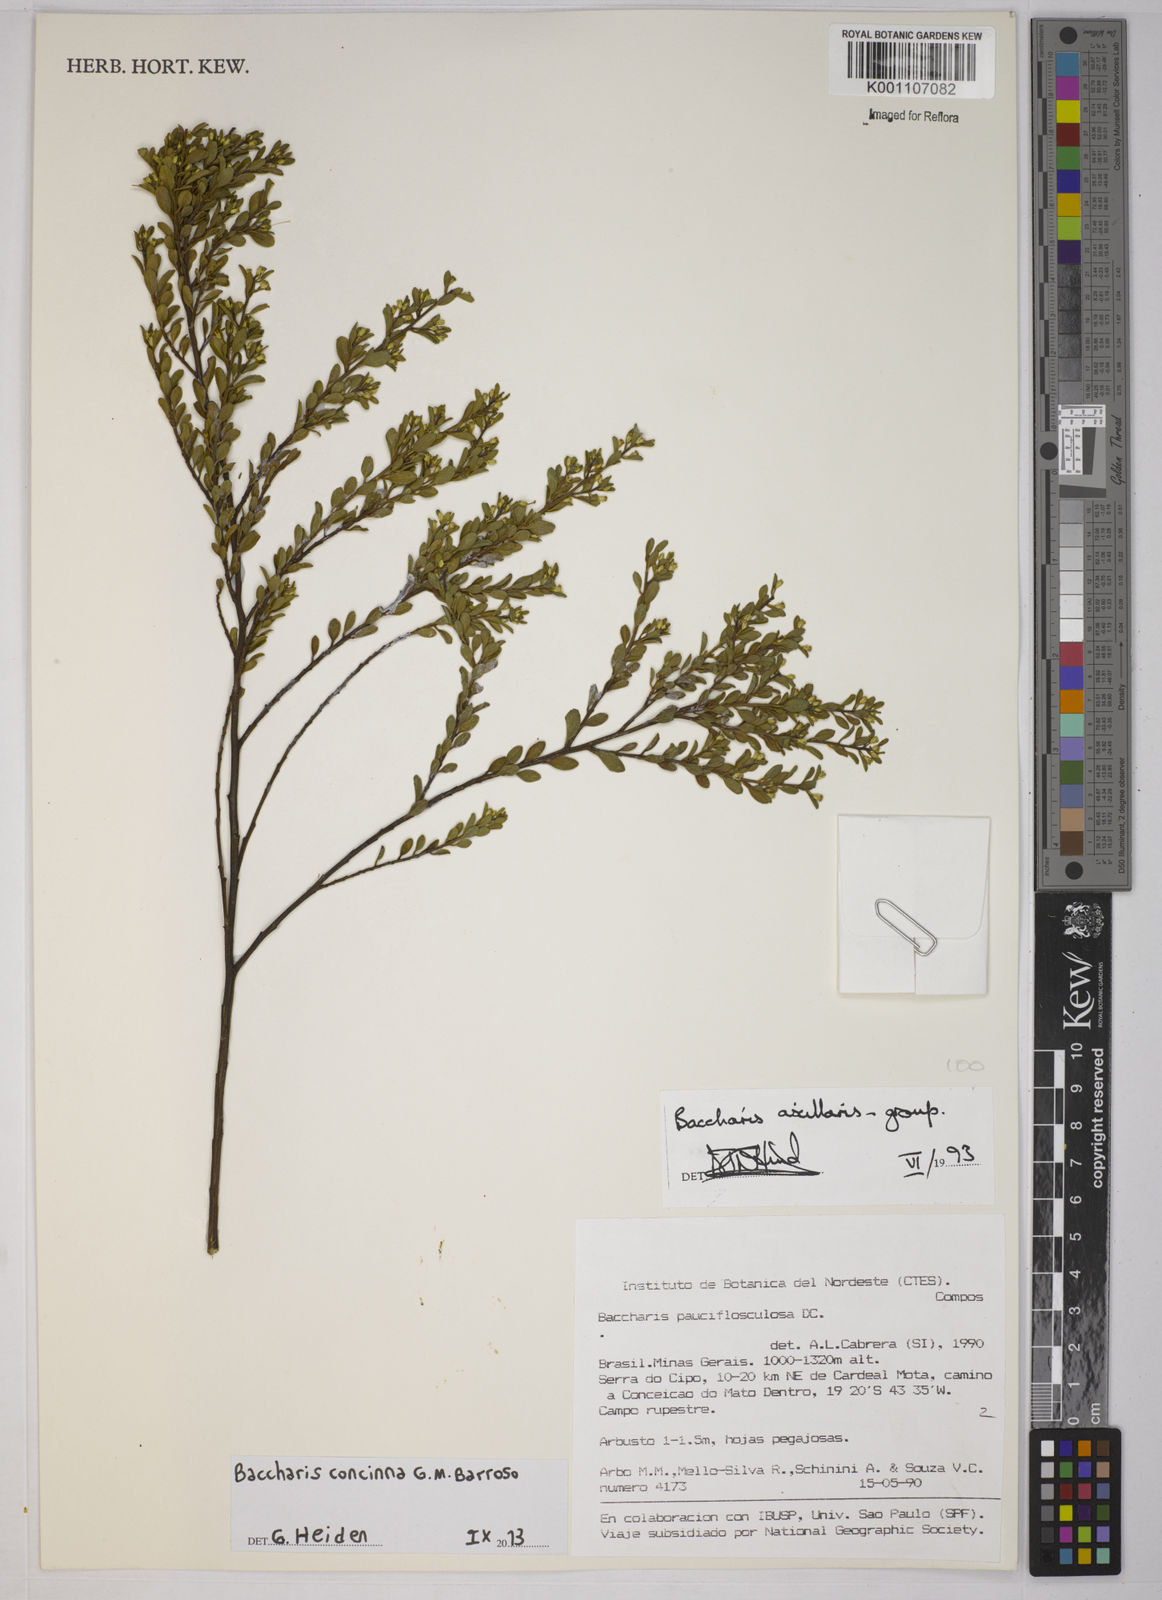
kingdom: Plantae
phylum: Tracheophyta
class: Magnoliopsida
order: Asterales
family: Asteraceae
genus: Baccharis
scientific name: Baccharis concinna
